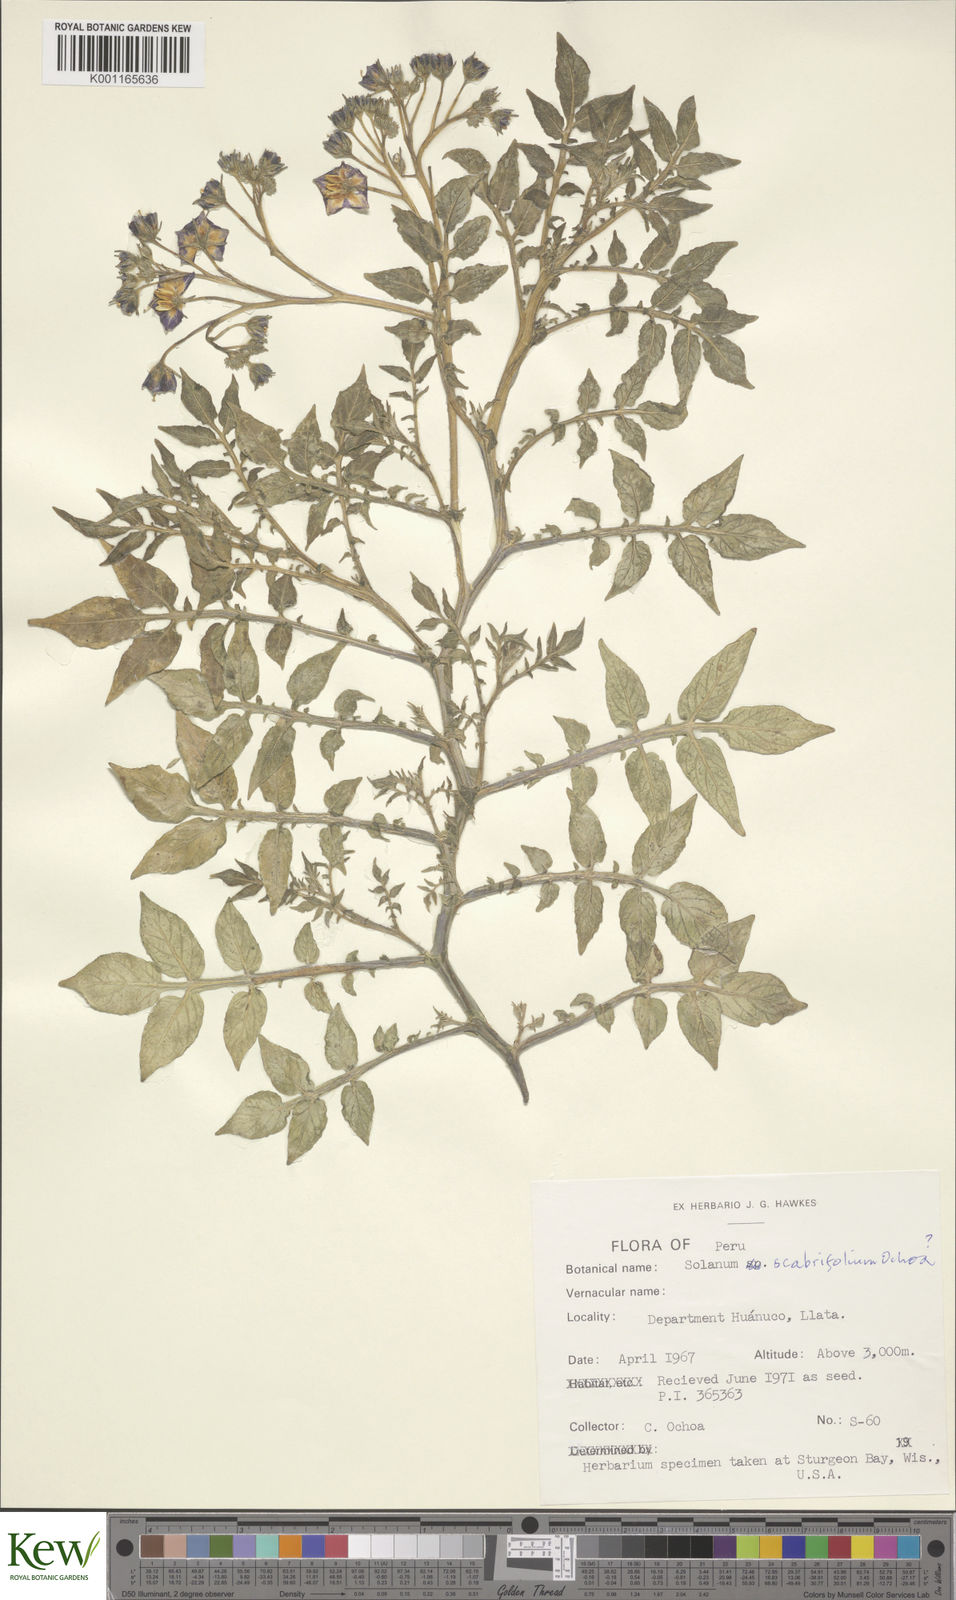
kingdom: Plantae
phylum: Tracheophyta
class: Magnoliopsida
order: Solanales
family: Solanaceae
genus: Solanum
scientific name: Solanum scabrifolium
